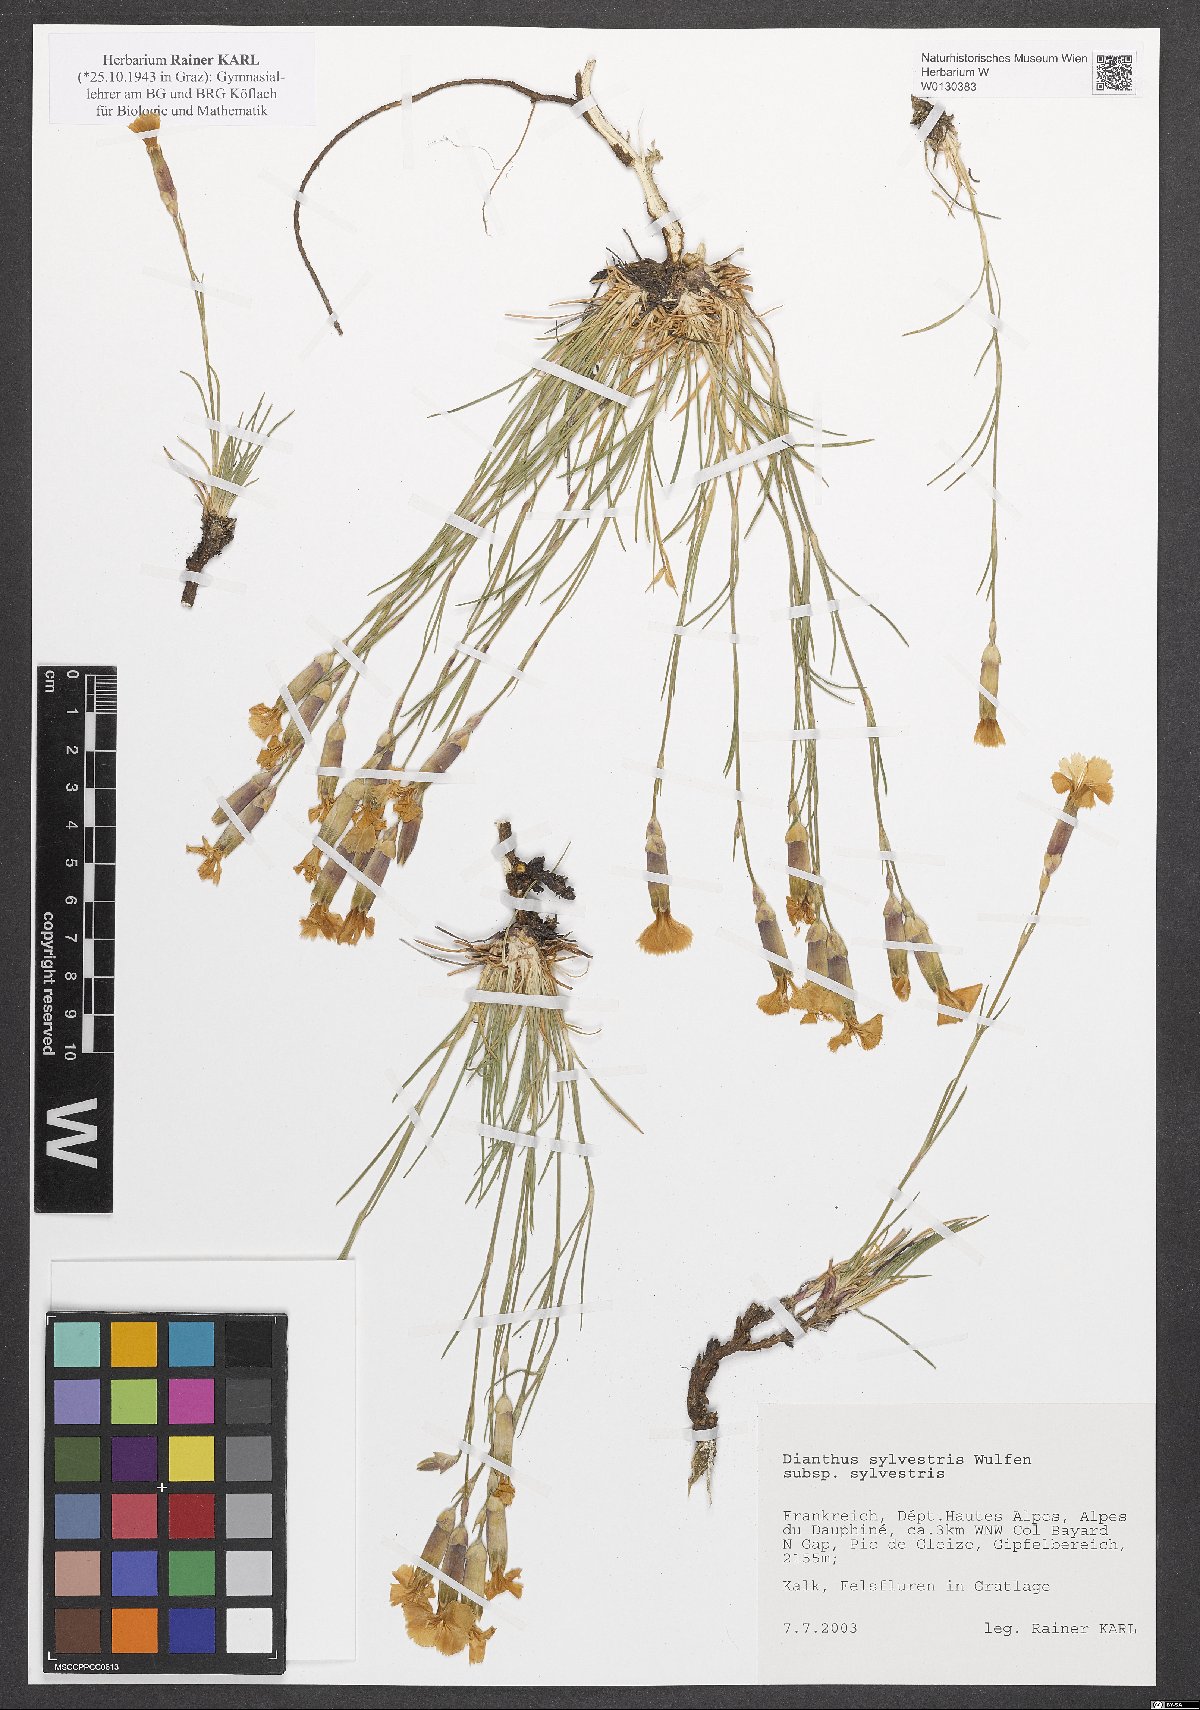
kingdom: Plantae
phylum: Tracheophyta
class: Magnoliopsida
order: Caryophyllales
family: Caryophyllaceae
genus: Dianthus
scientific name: Dianthus sylvestris
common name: Wood pink
